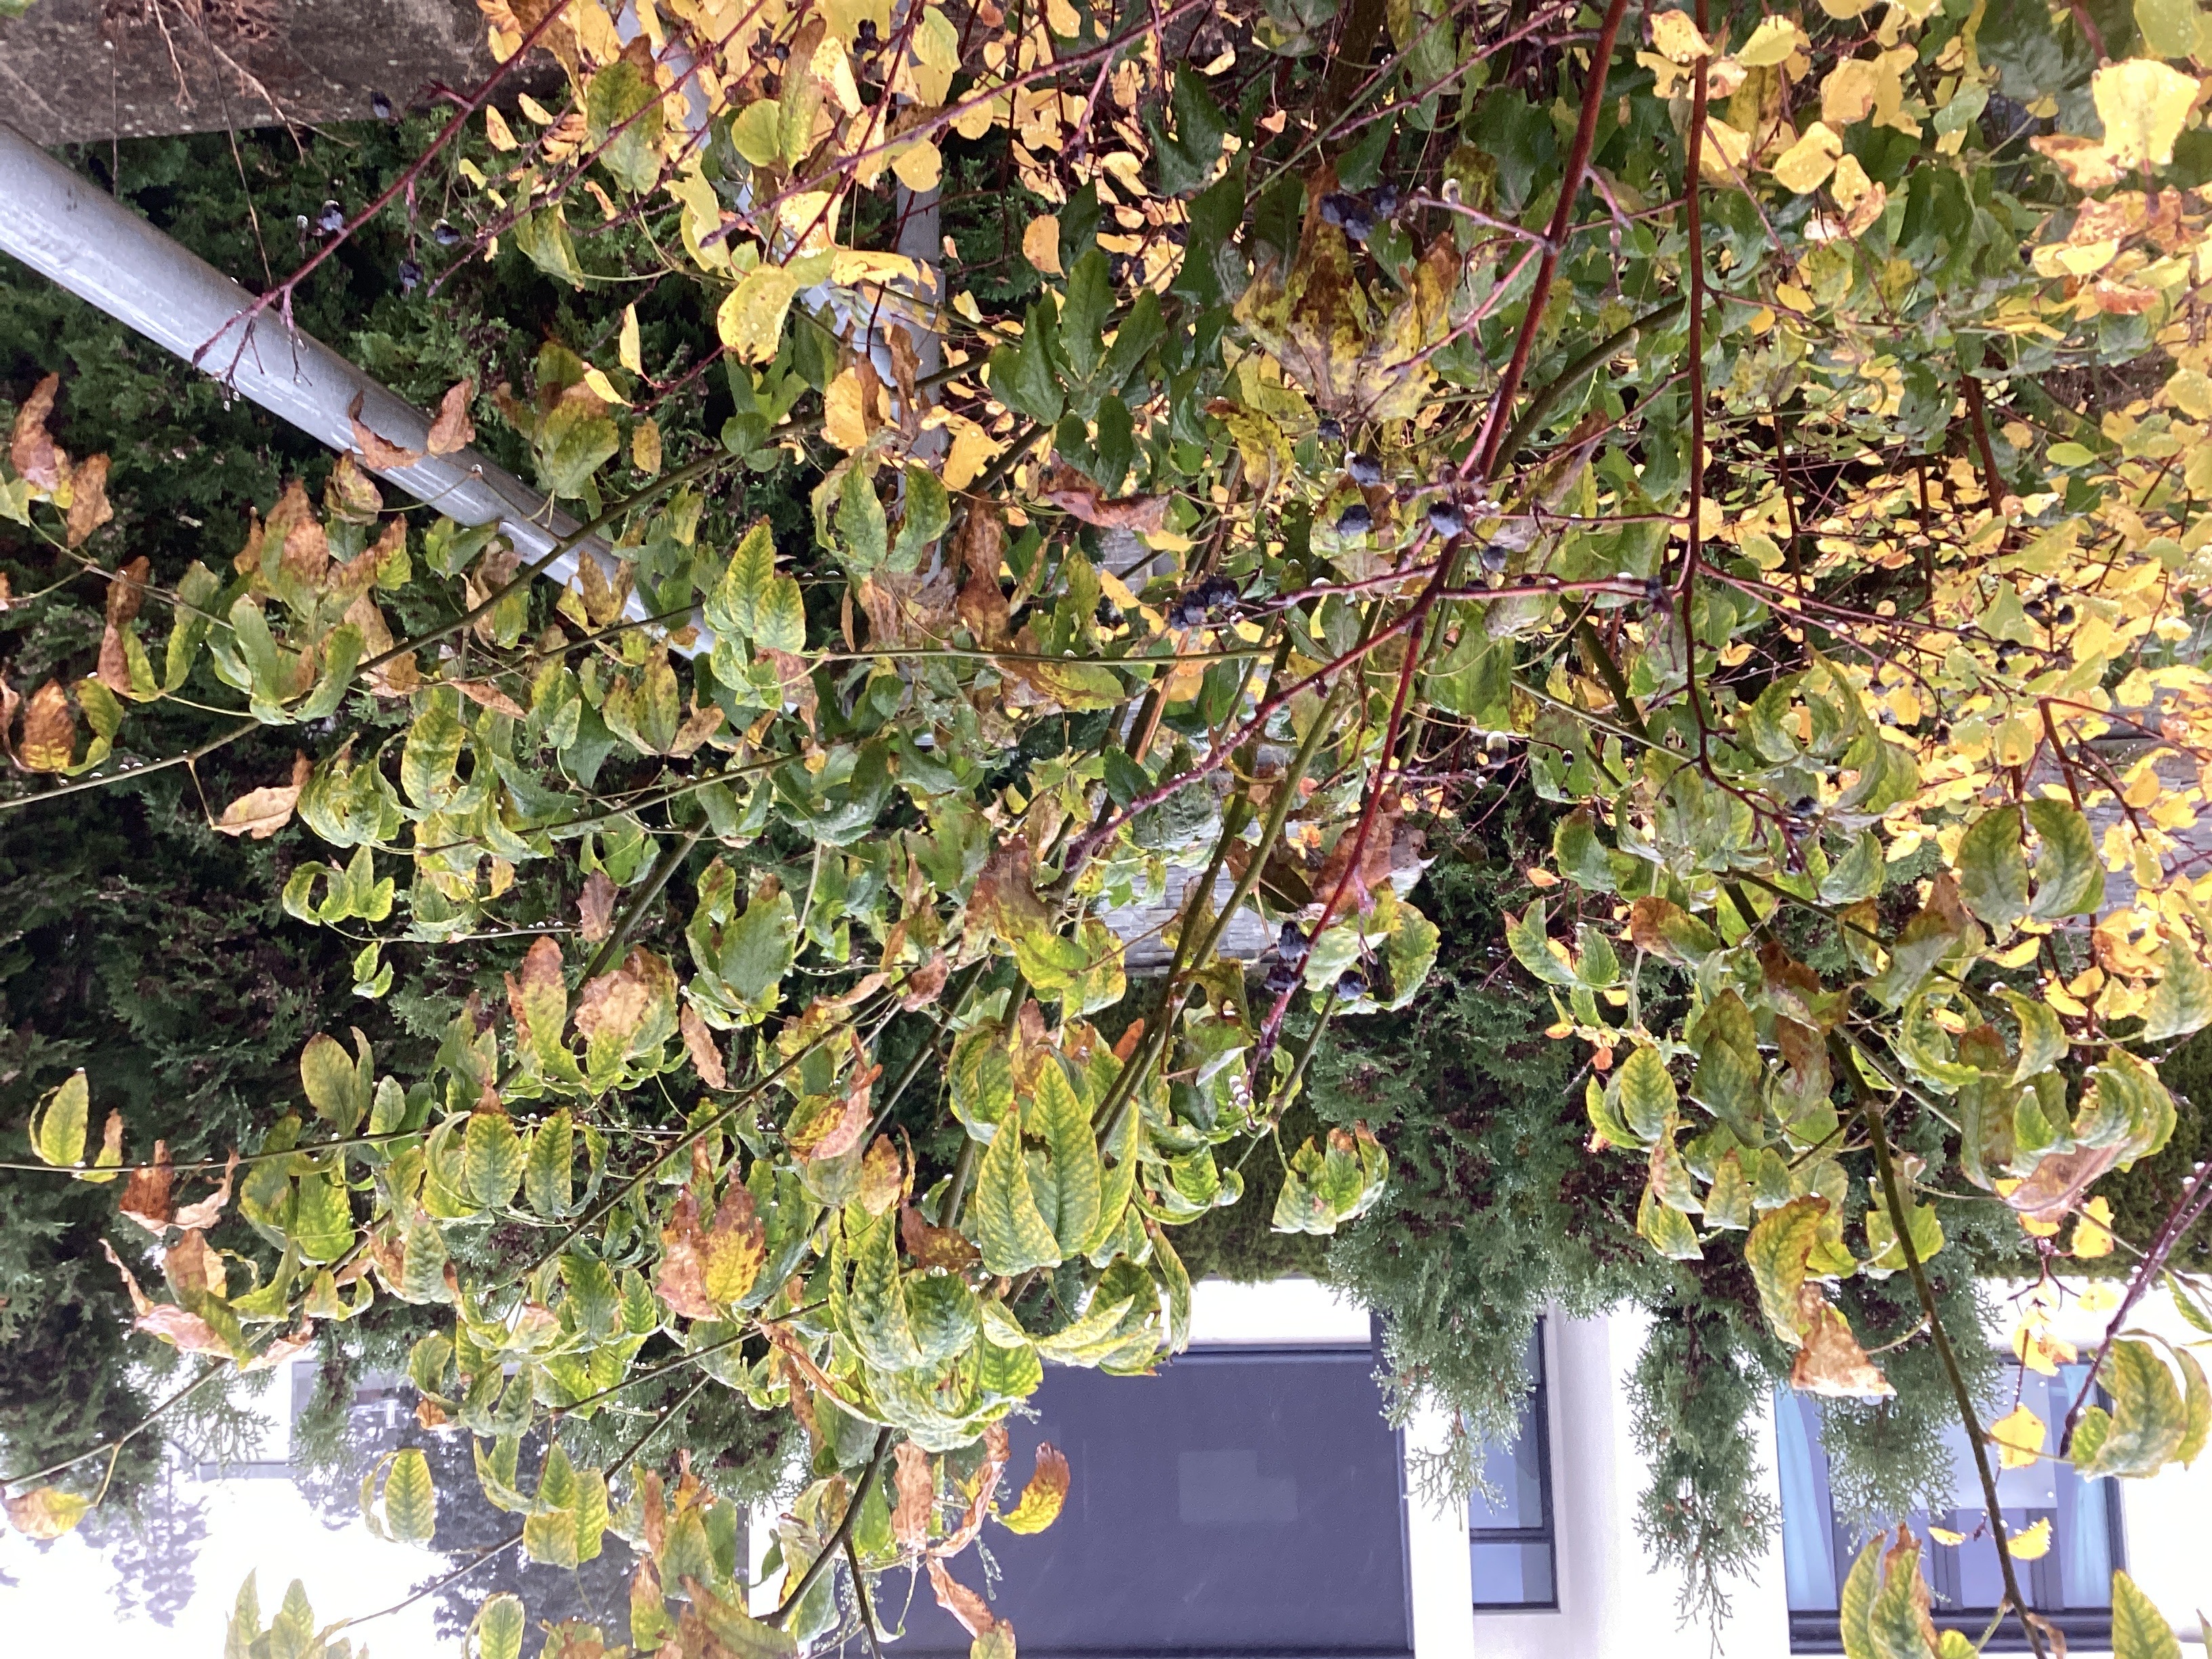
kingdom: Plantae
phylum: Tracheophyta
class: Magnoliopsida
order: Fabales
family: Fabaceae
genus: Laburnum
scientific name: Laburnum anagyroides
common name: gullregn
